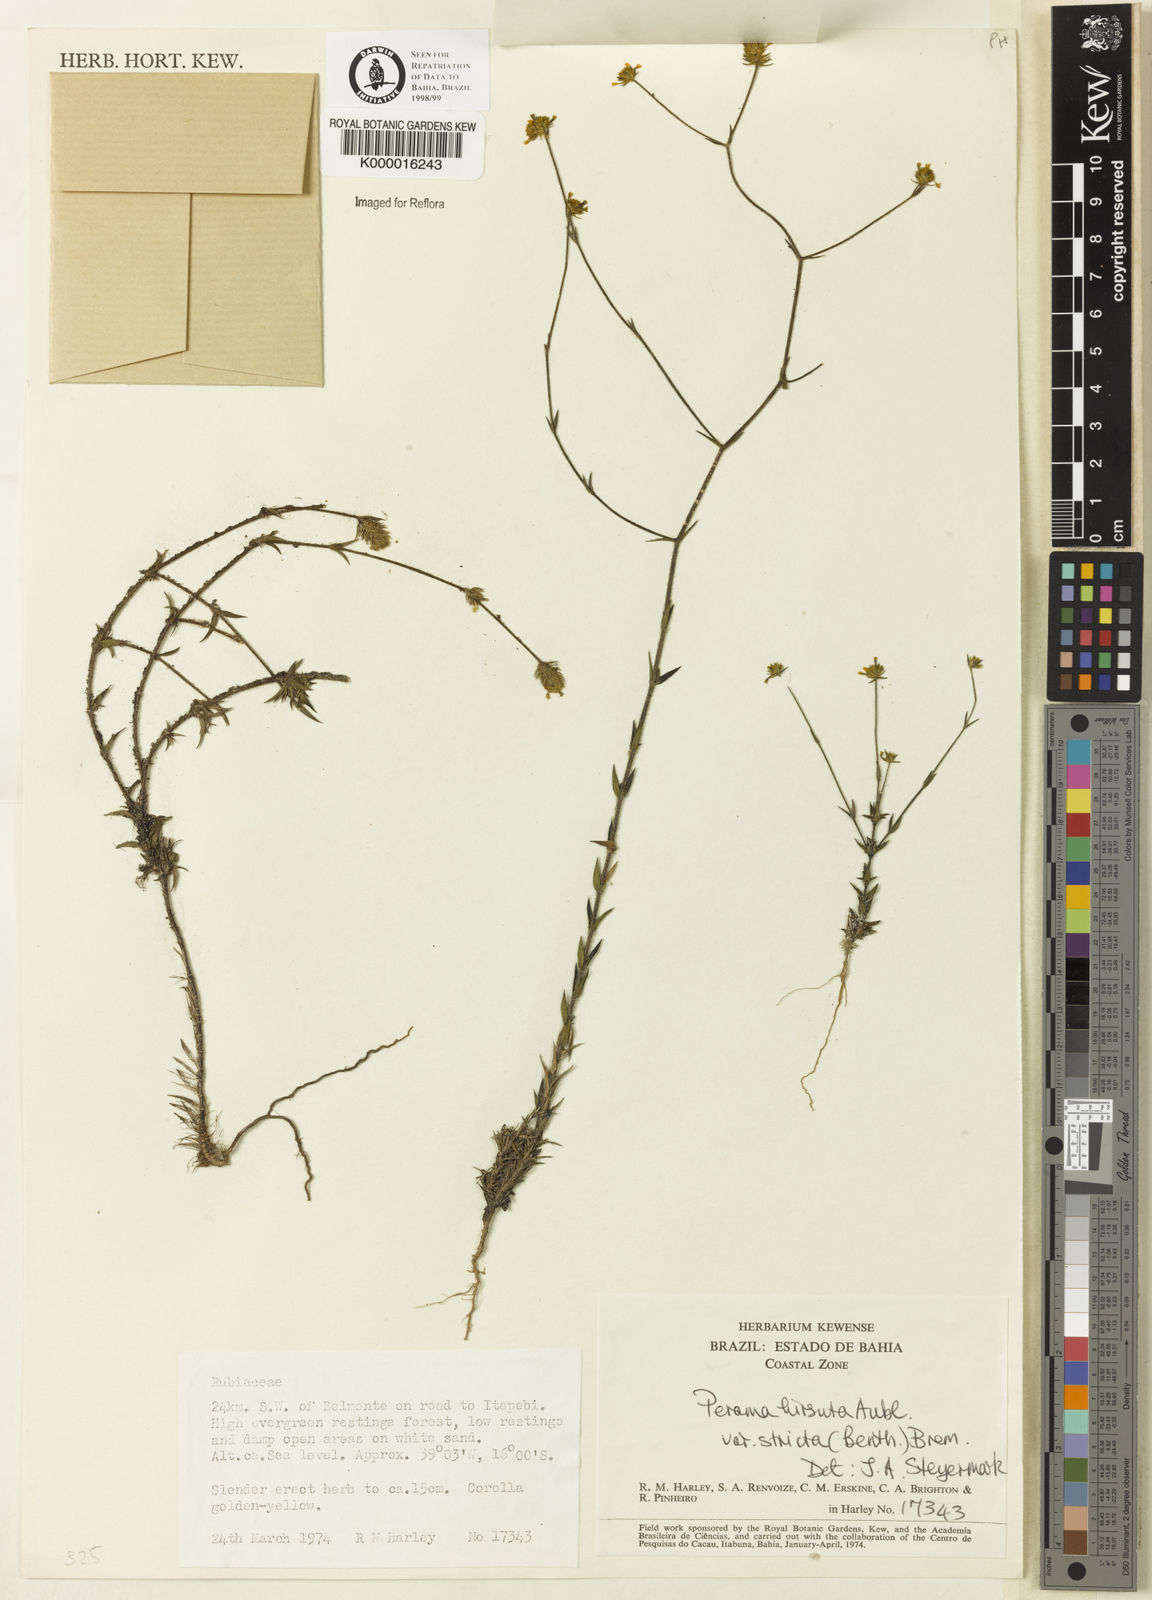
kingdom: Plantae
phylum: Tracheophyta
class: Magnoliopsida
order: Gentianales
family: Rubiaceae
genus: Perama
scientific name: Perama hirsuta
